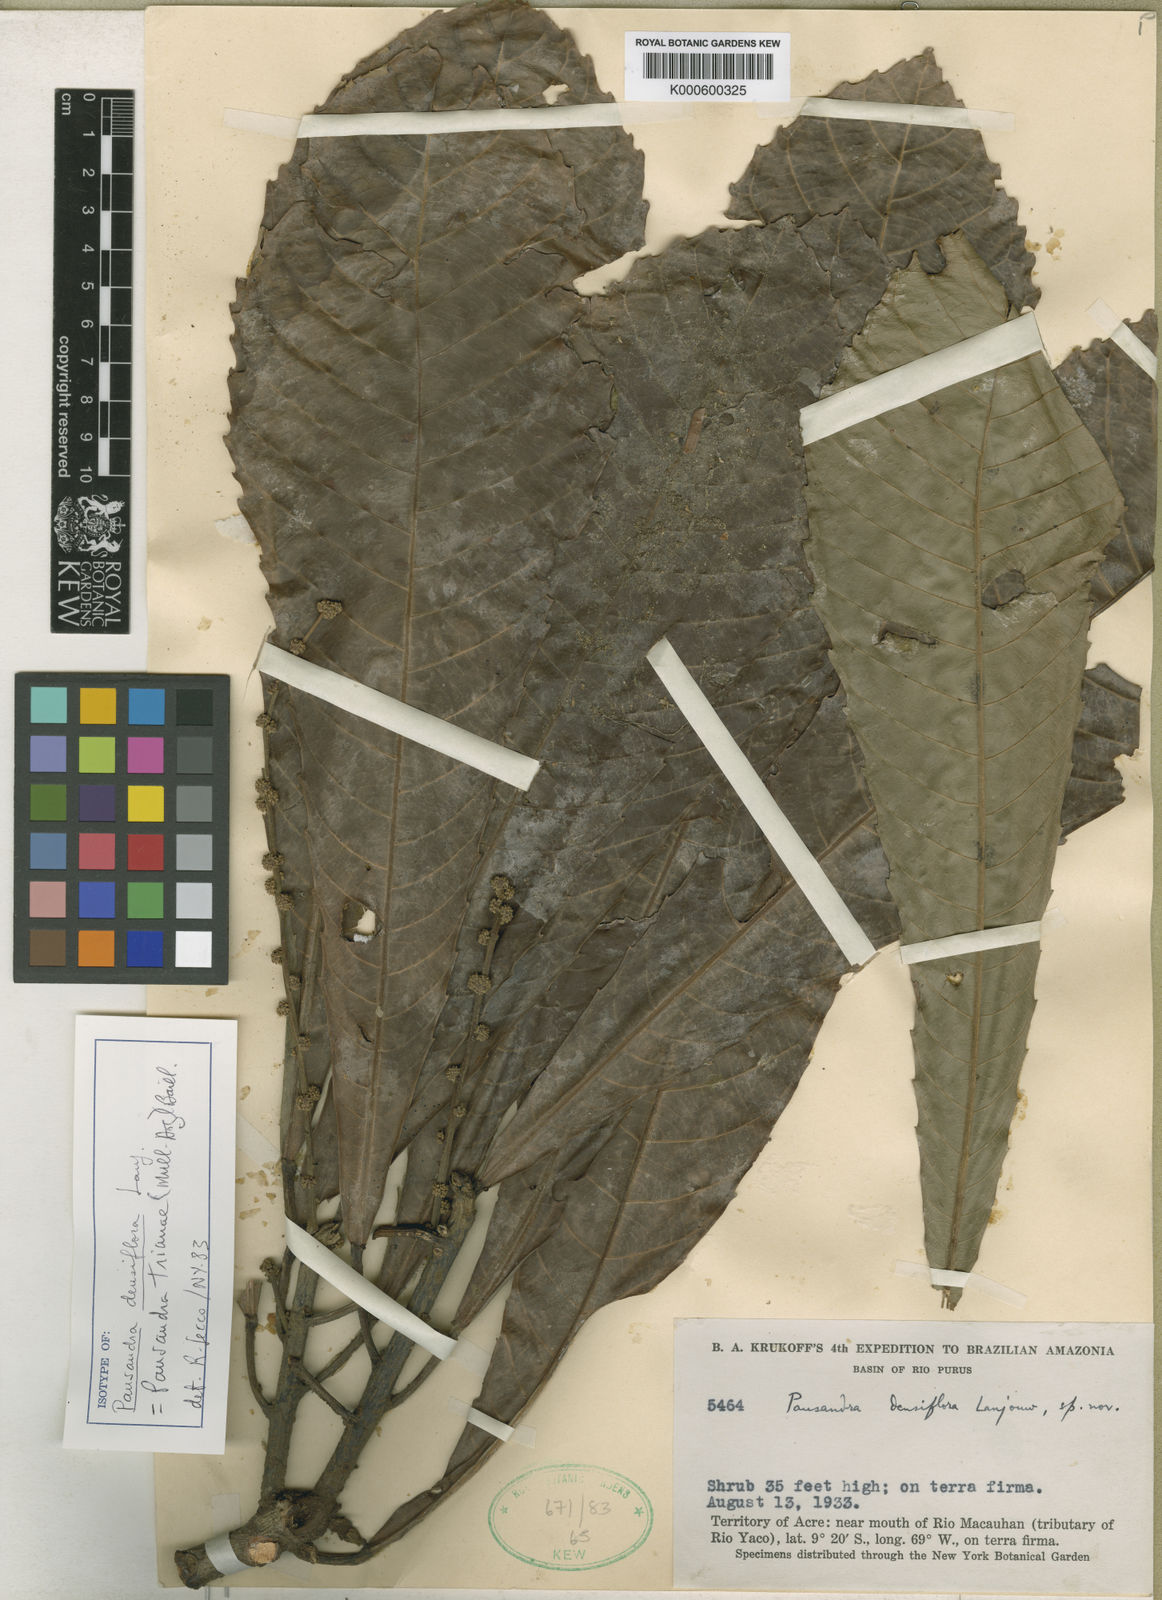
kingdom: Plantae
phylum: Tracheophyta
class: Magnoliopsida
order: Malpighiales
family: Euphorbiaceae
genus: Pausandra
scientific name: Pausandra trianae
